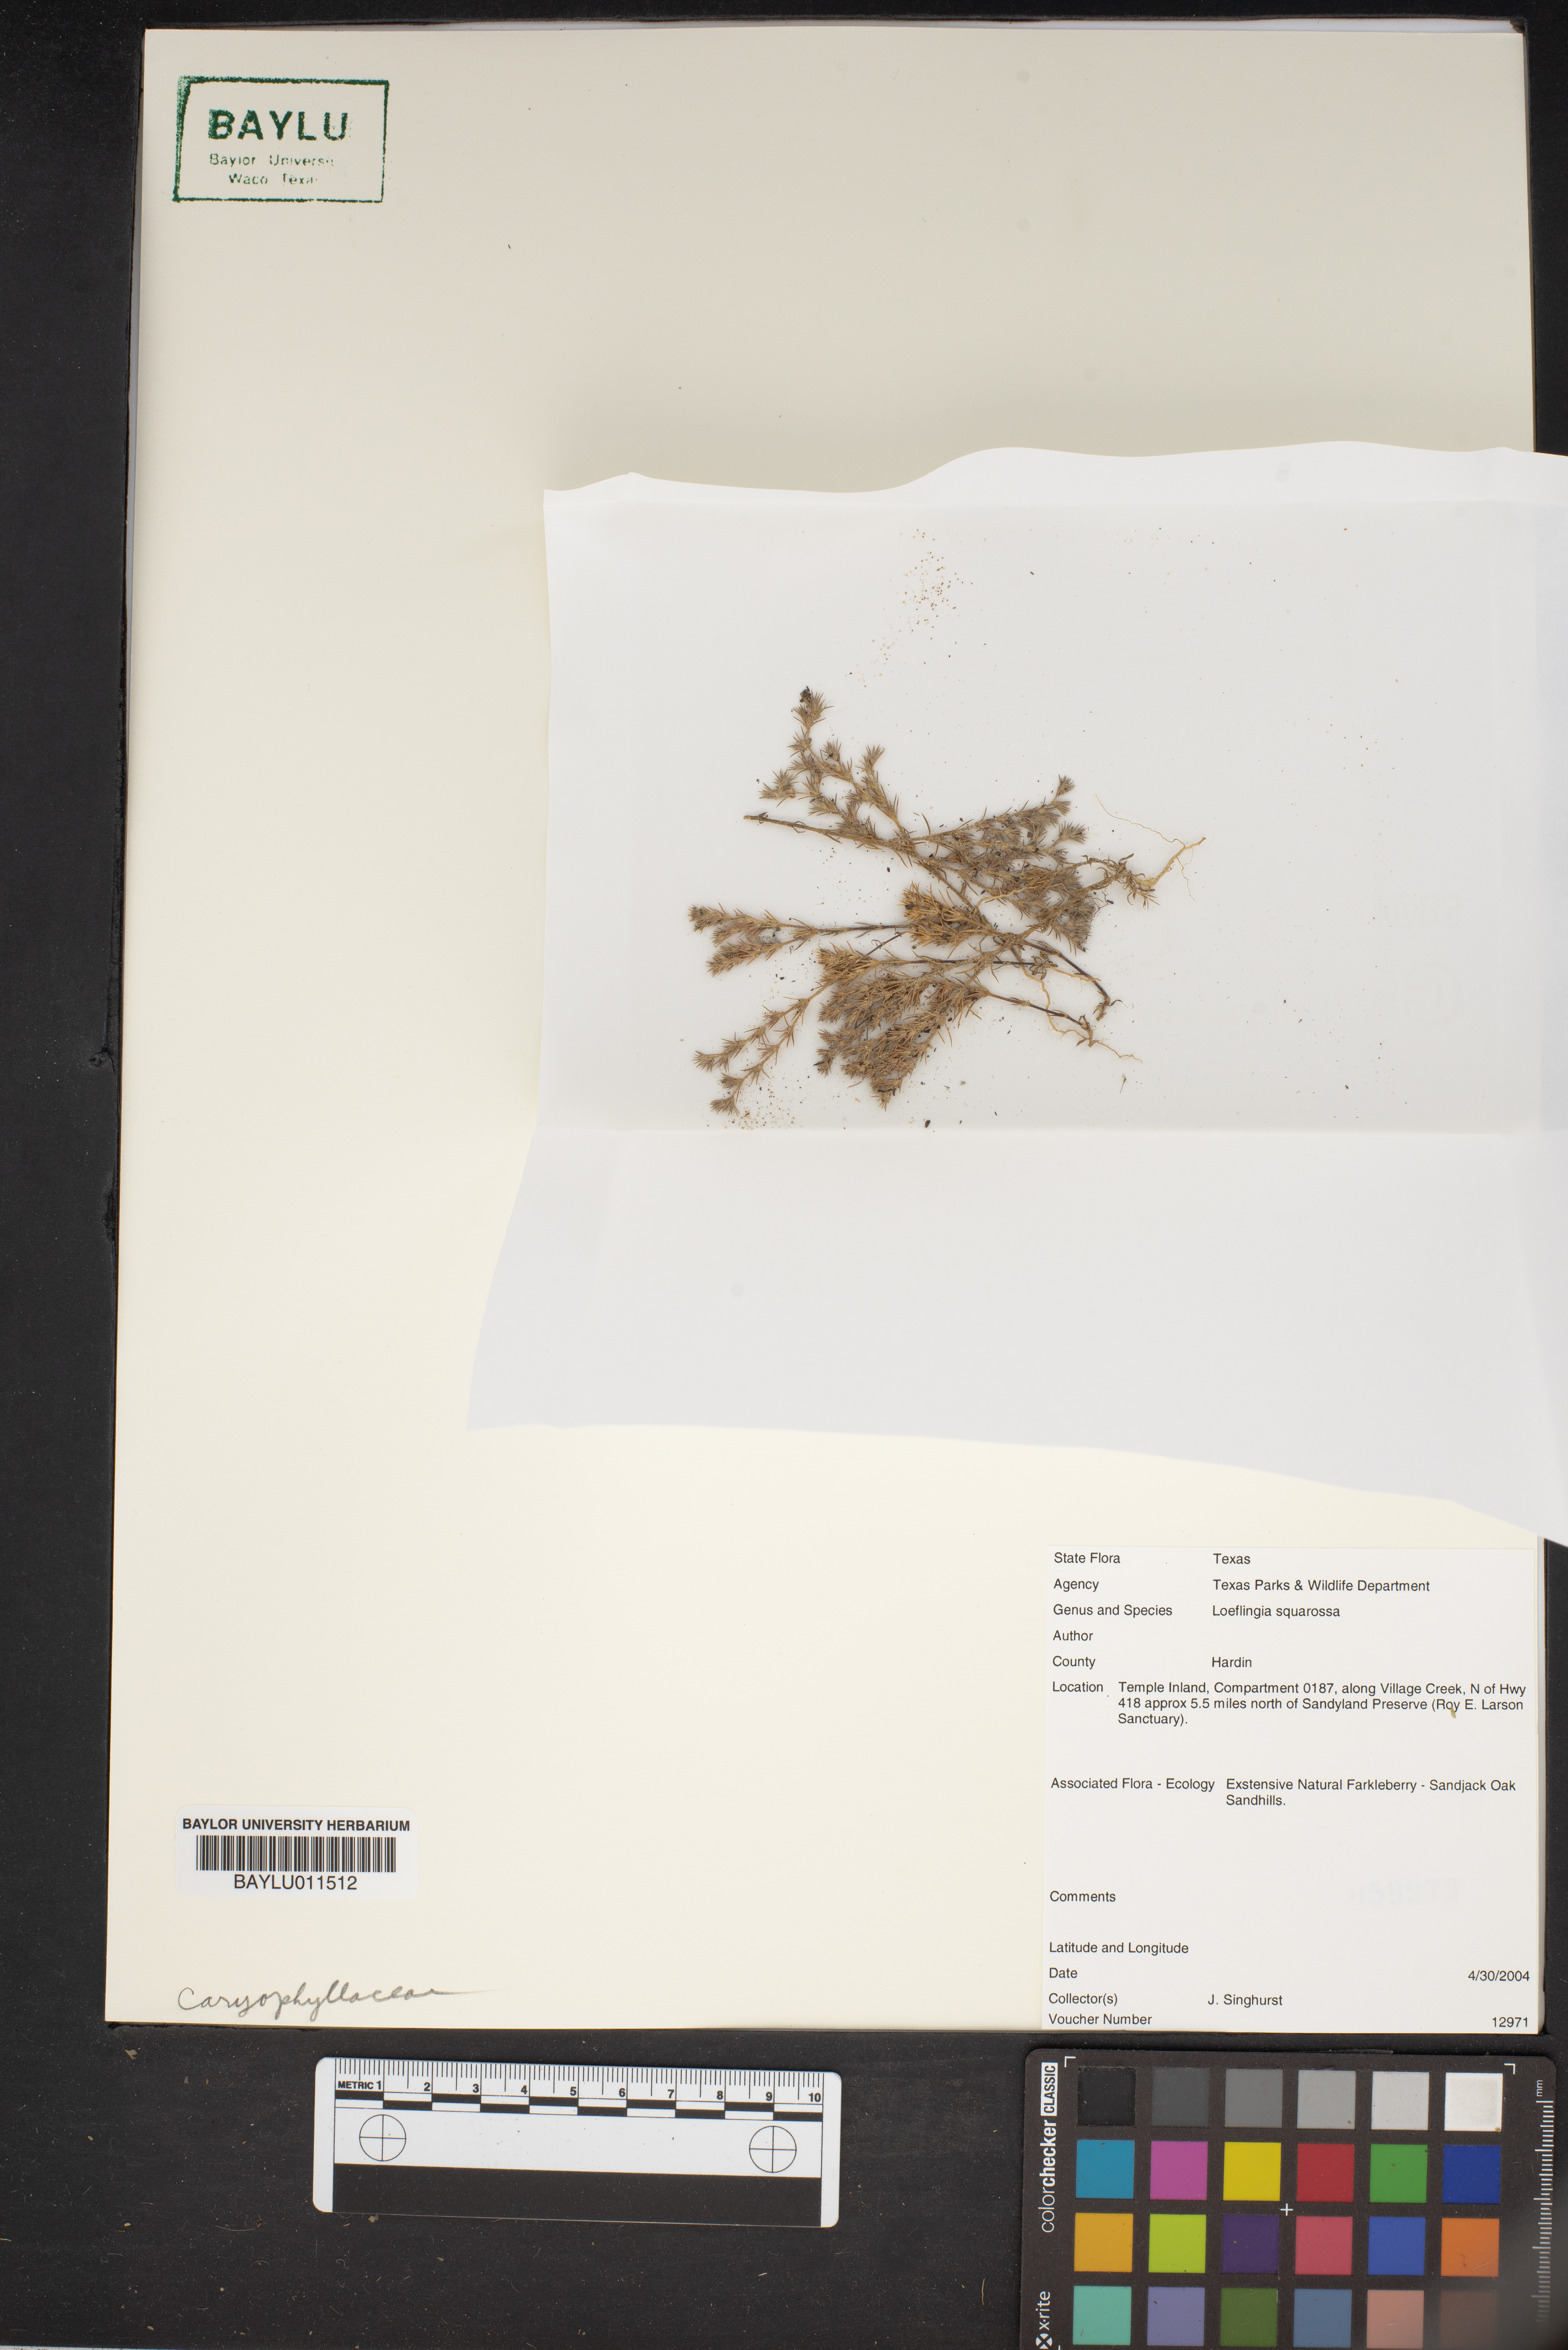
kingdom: Plantae
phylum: Tracheophyta
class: Magnoliopsida
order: Caryophyllales
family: Caryophyllaceae
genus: Loeflingia
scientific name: Loeflingia squarrosa
